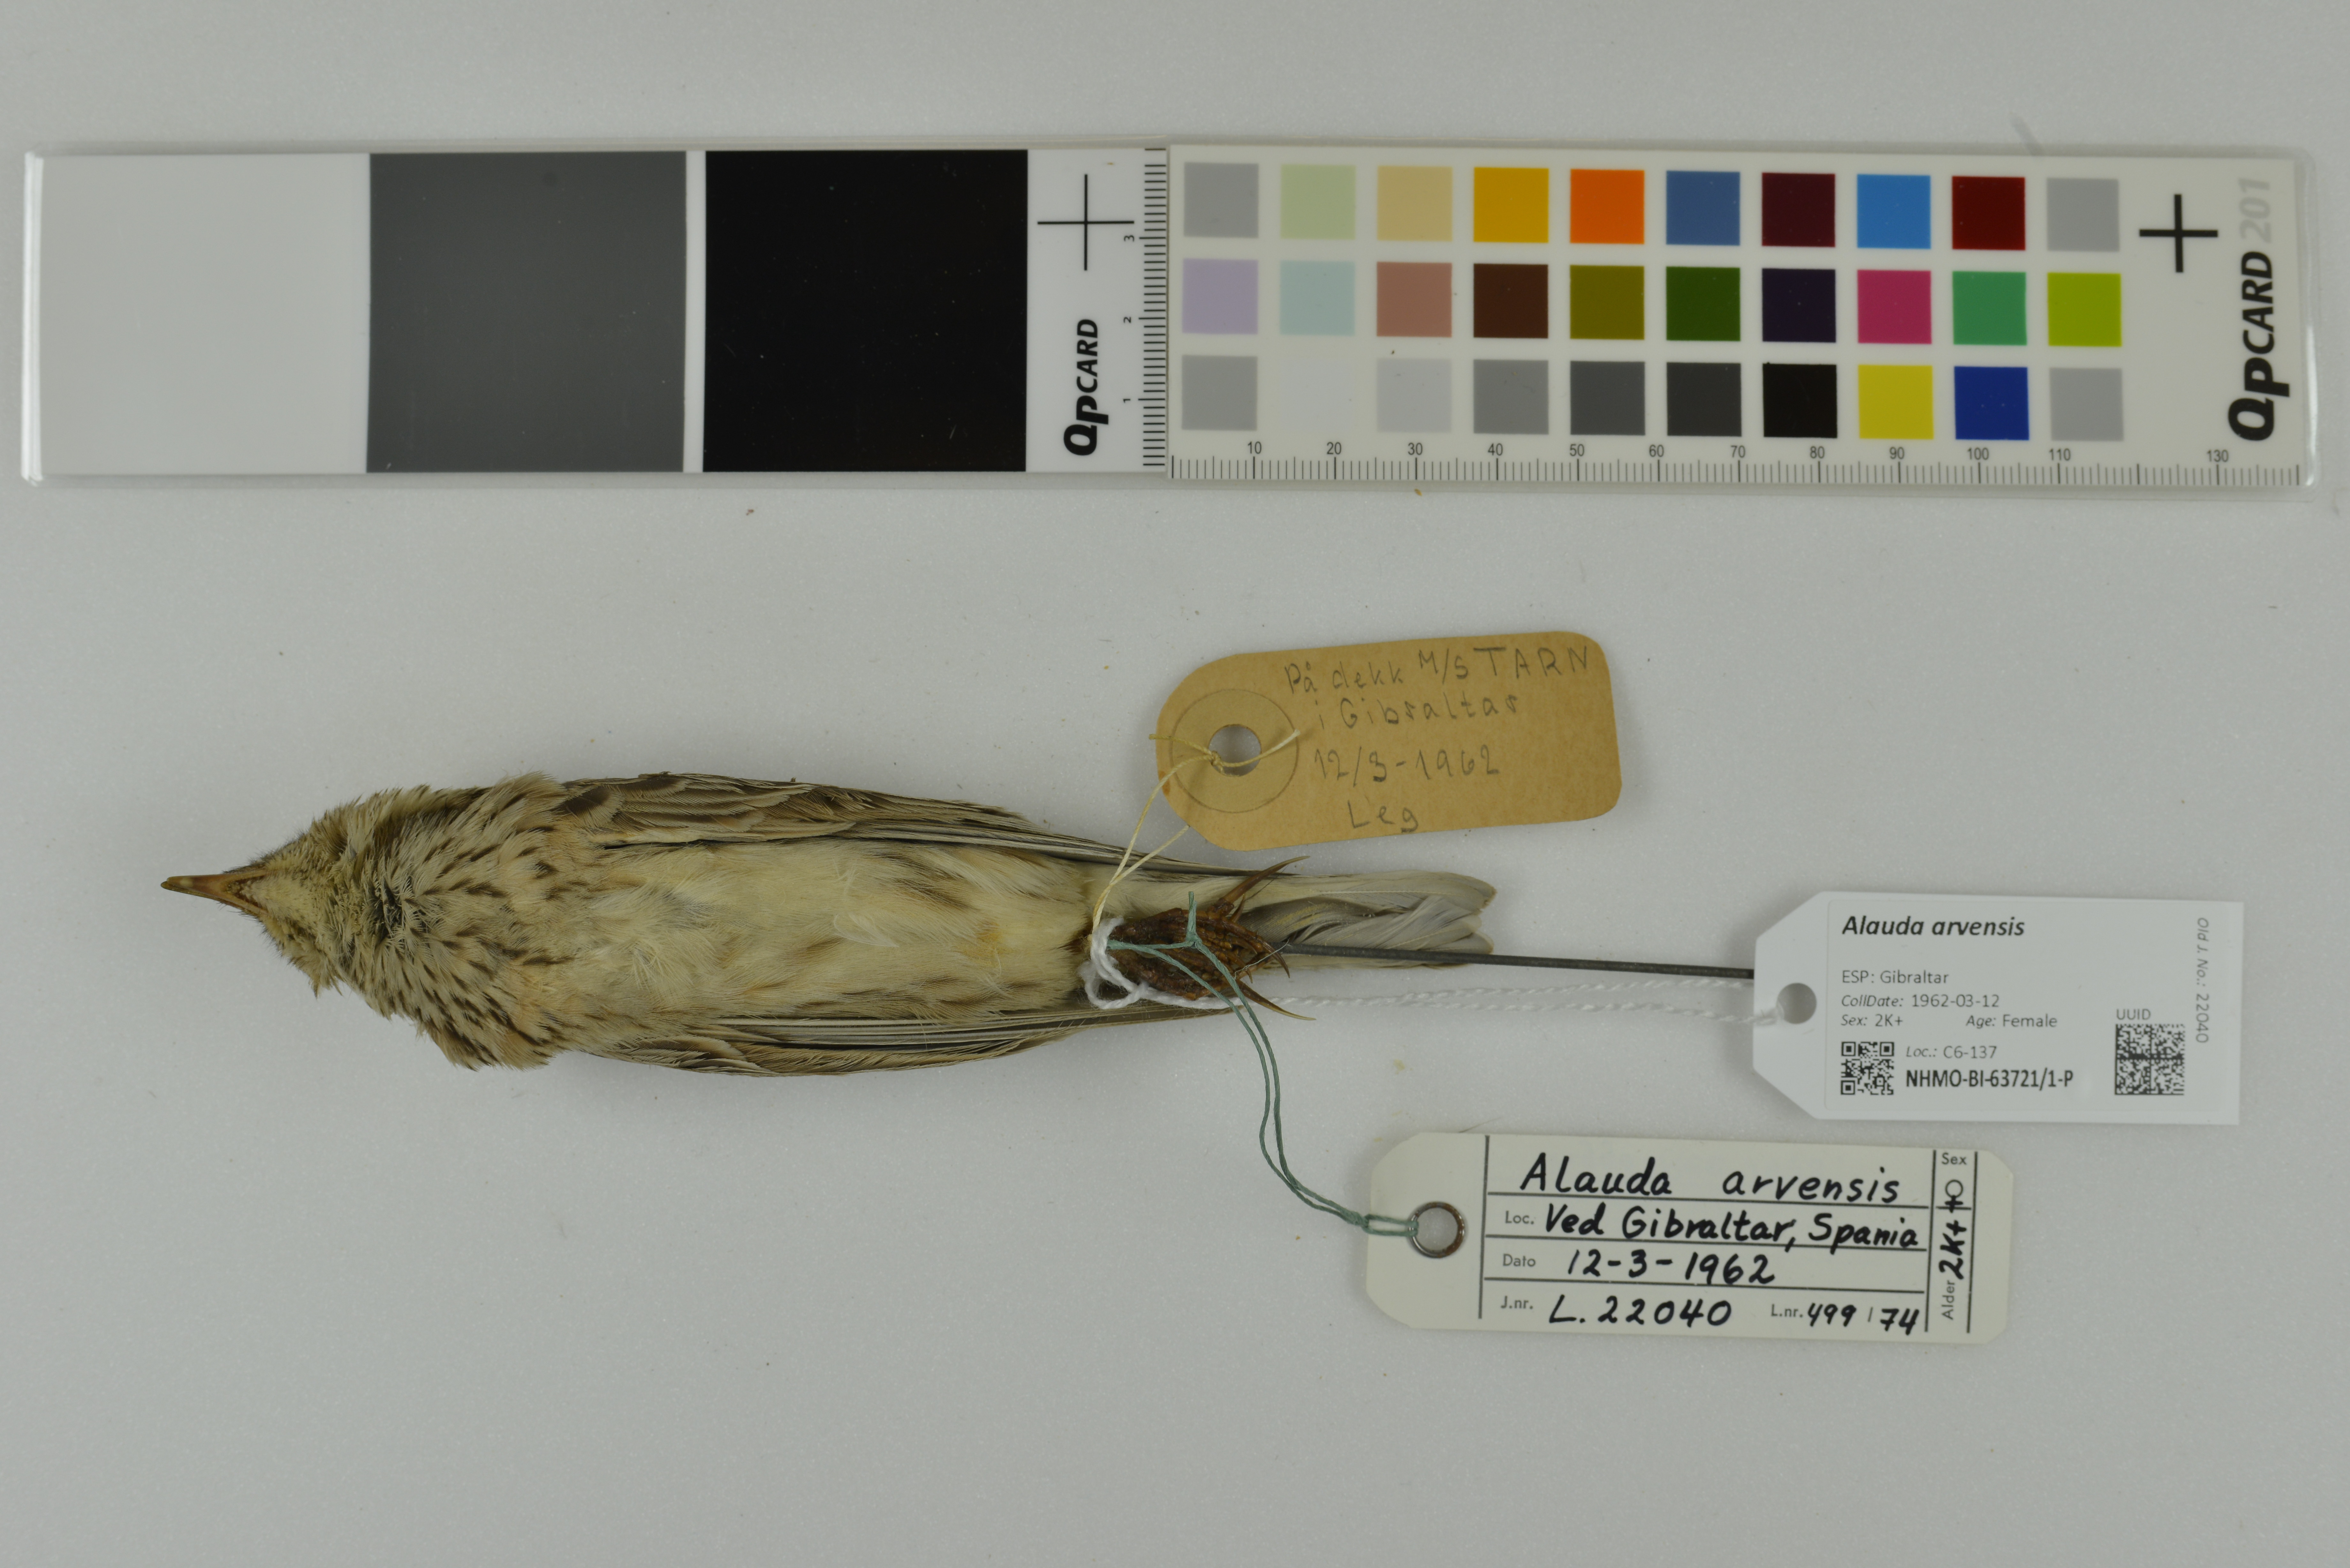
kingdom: Animalia
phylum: Chordata
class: Aves
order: Passeriformes
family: Alaudidae
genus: Alauda
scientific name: Alauda arvensis
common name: Eurasian skylark
